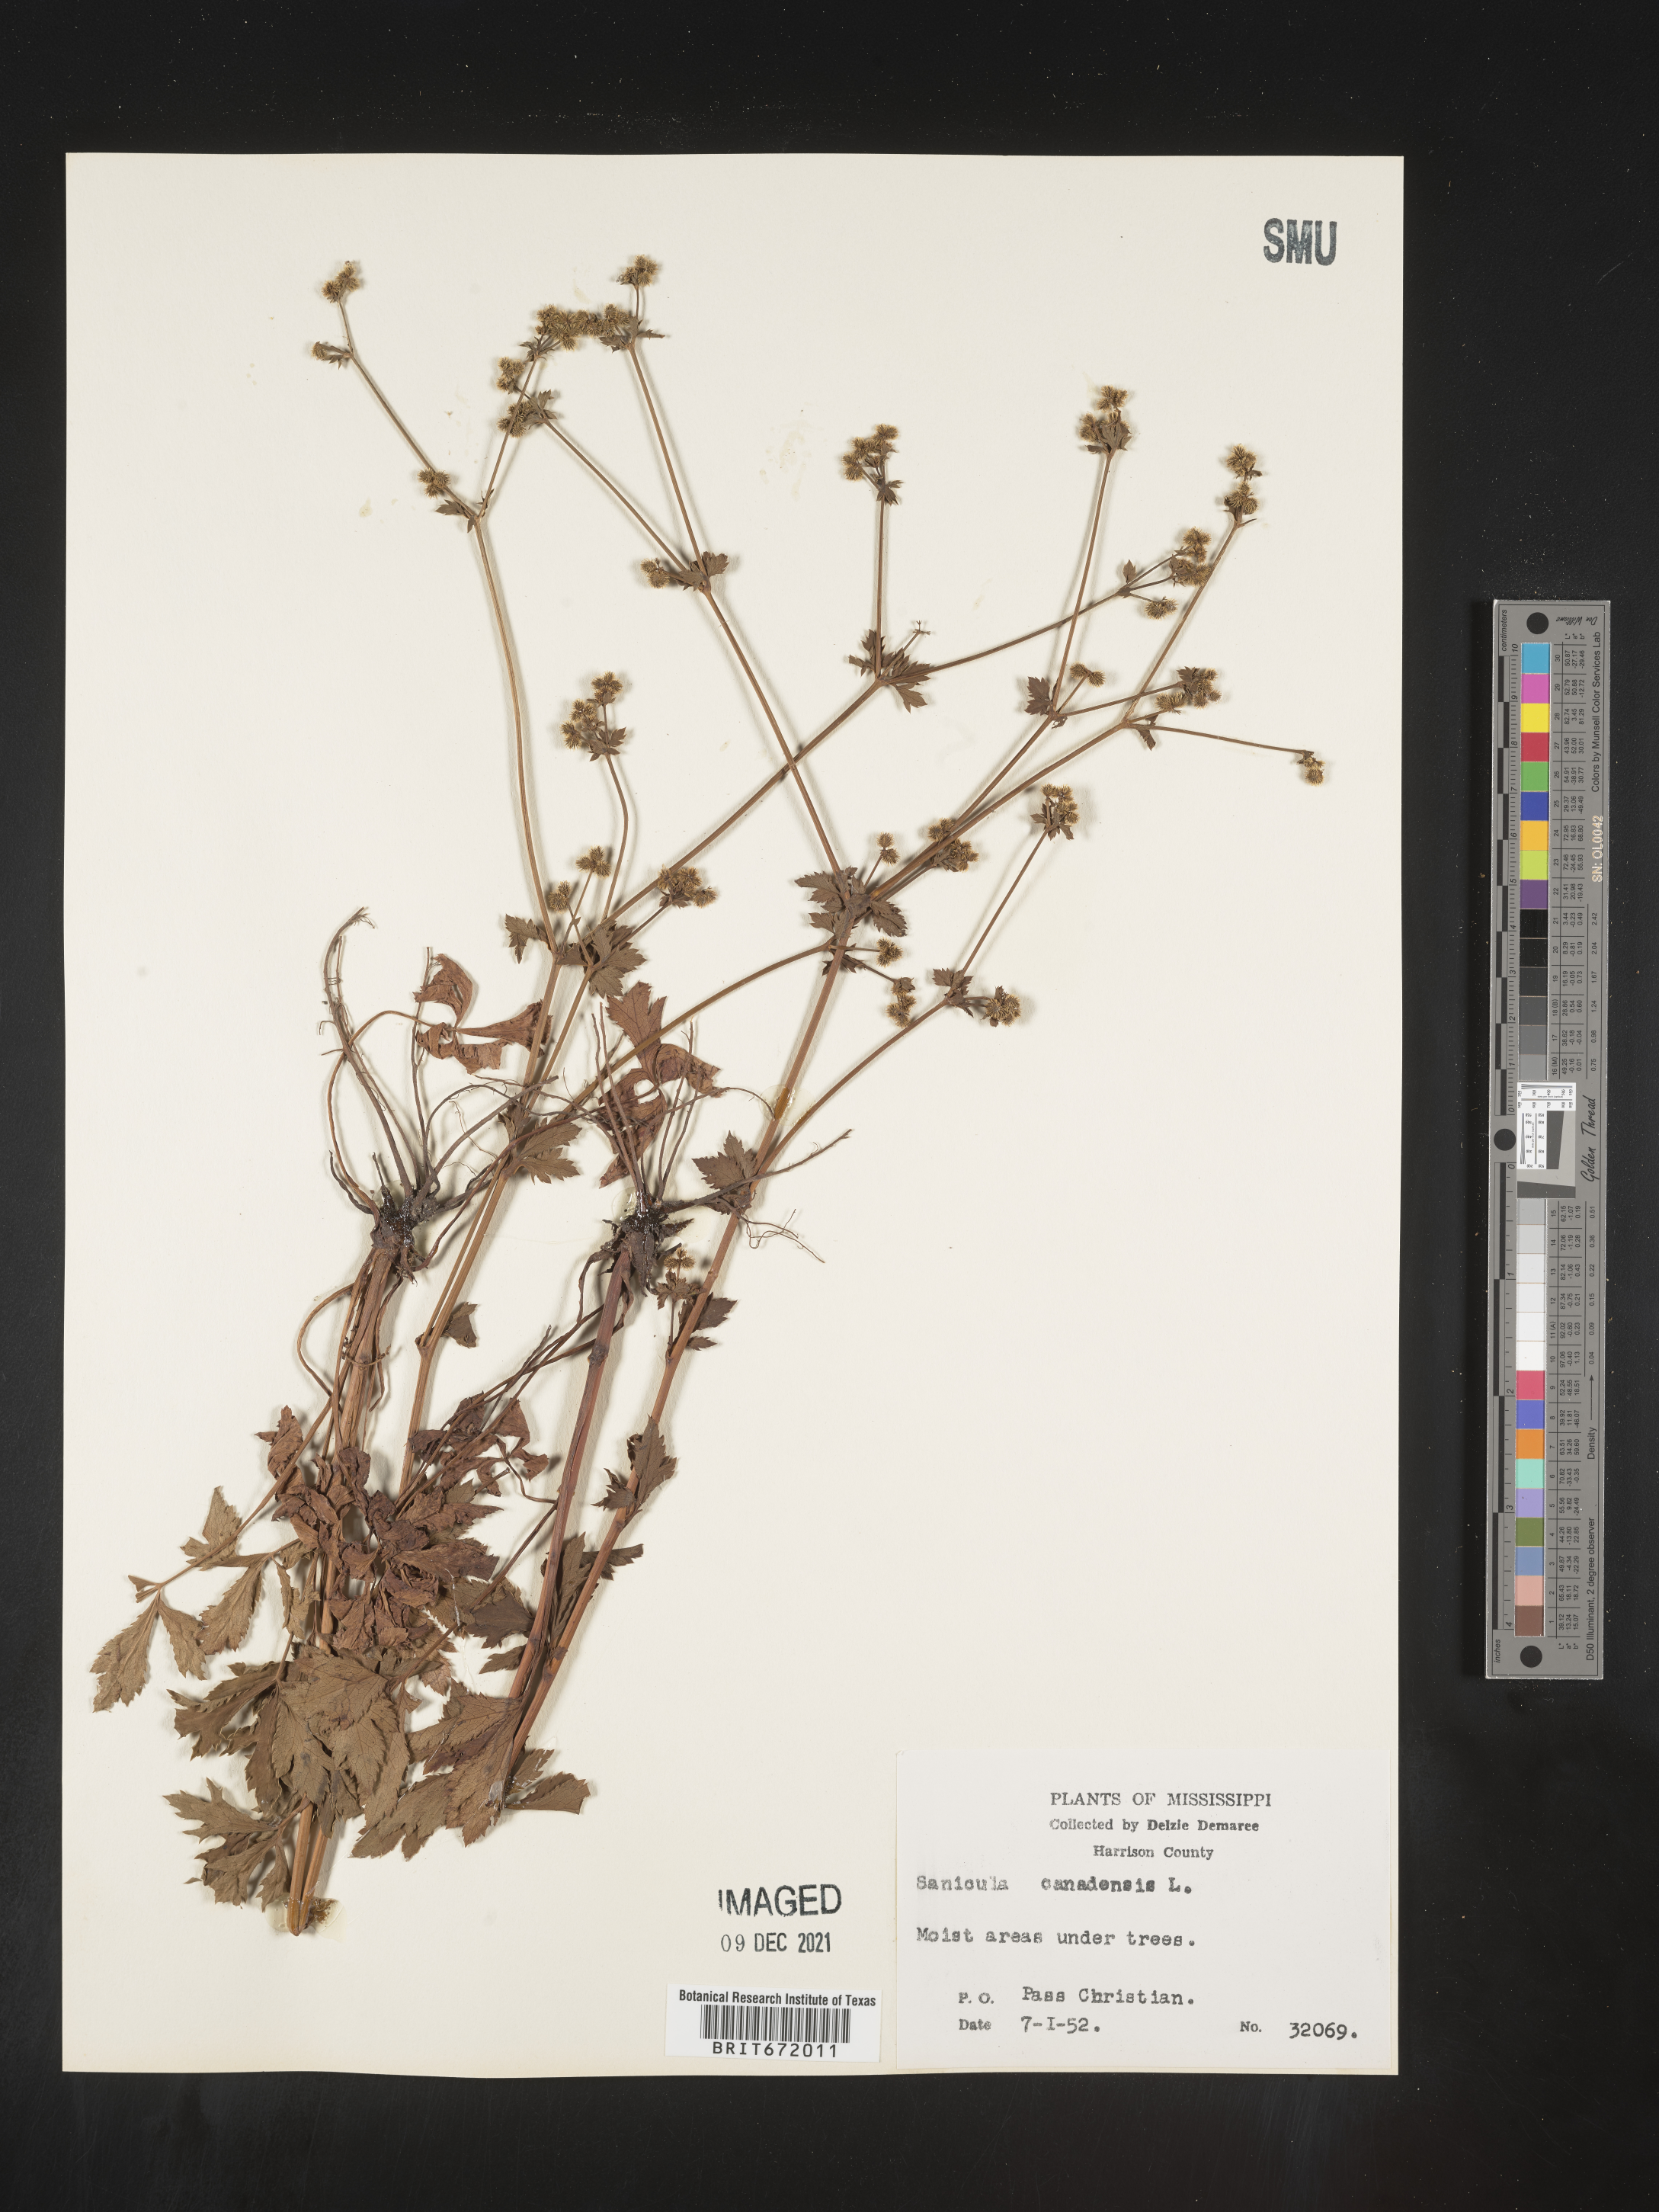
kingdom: Plantae
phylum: Tracheophyta
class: Magnoliopsida
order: Apiales
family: Apiaceae
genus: Sanicula
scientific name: Sanicula canadensis
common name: Canada sanicle
